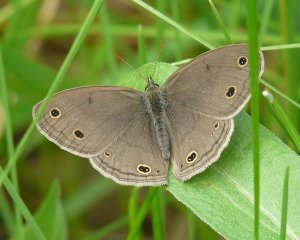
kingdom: Animalia
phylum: Arthropoda
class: Insecta
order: Lepidoptera
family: Nymphalidae
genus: Euptychia
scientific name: Euptychia cymela
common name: Little Wood Satyr
